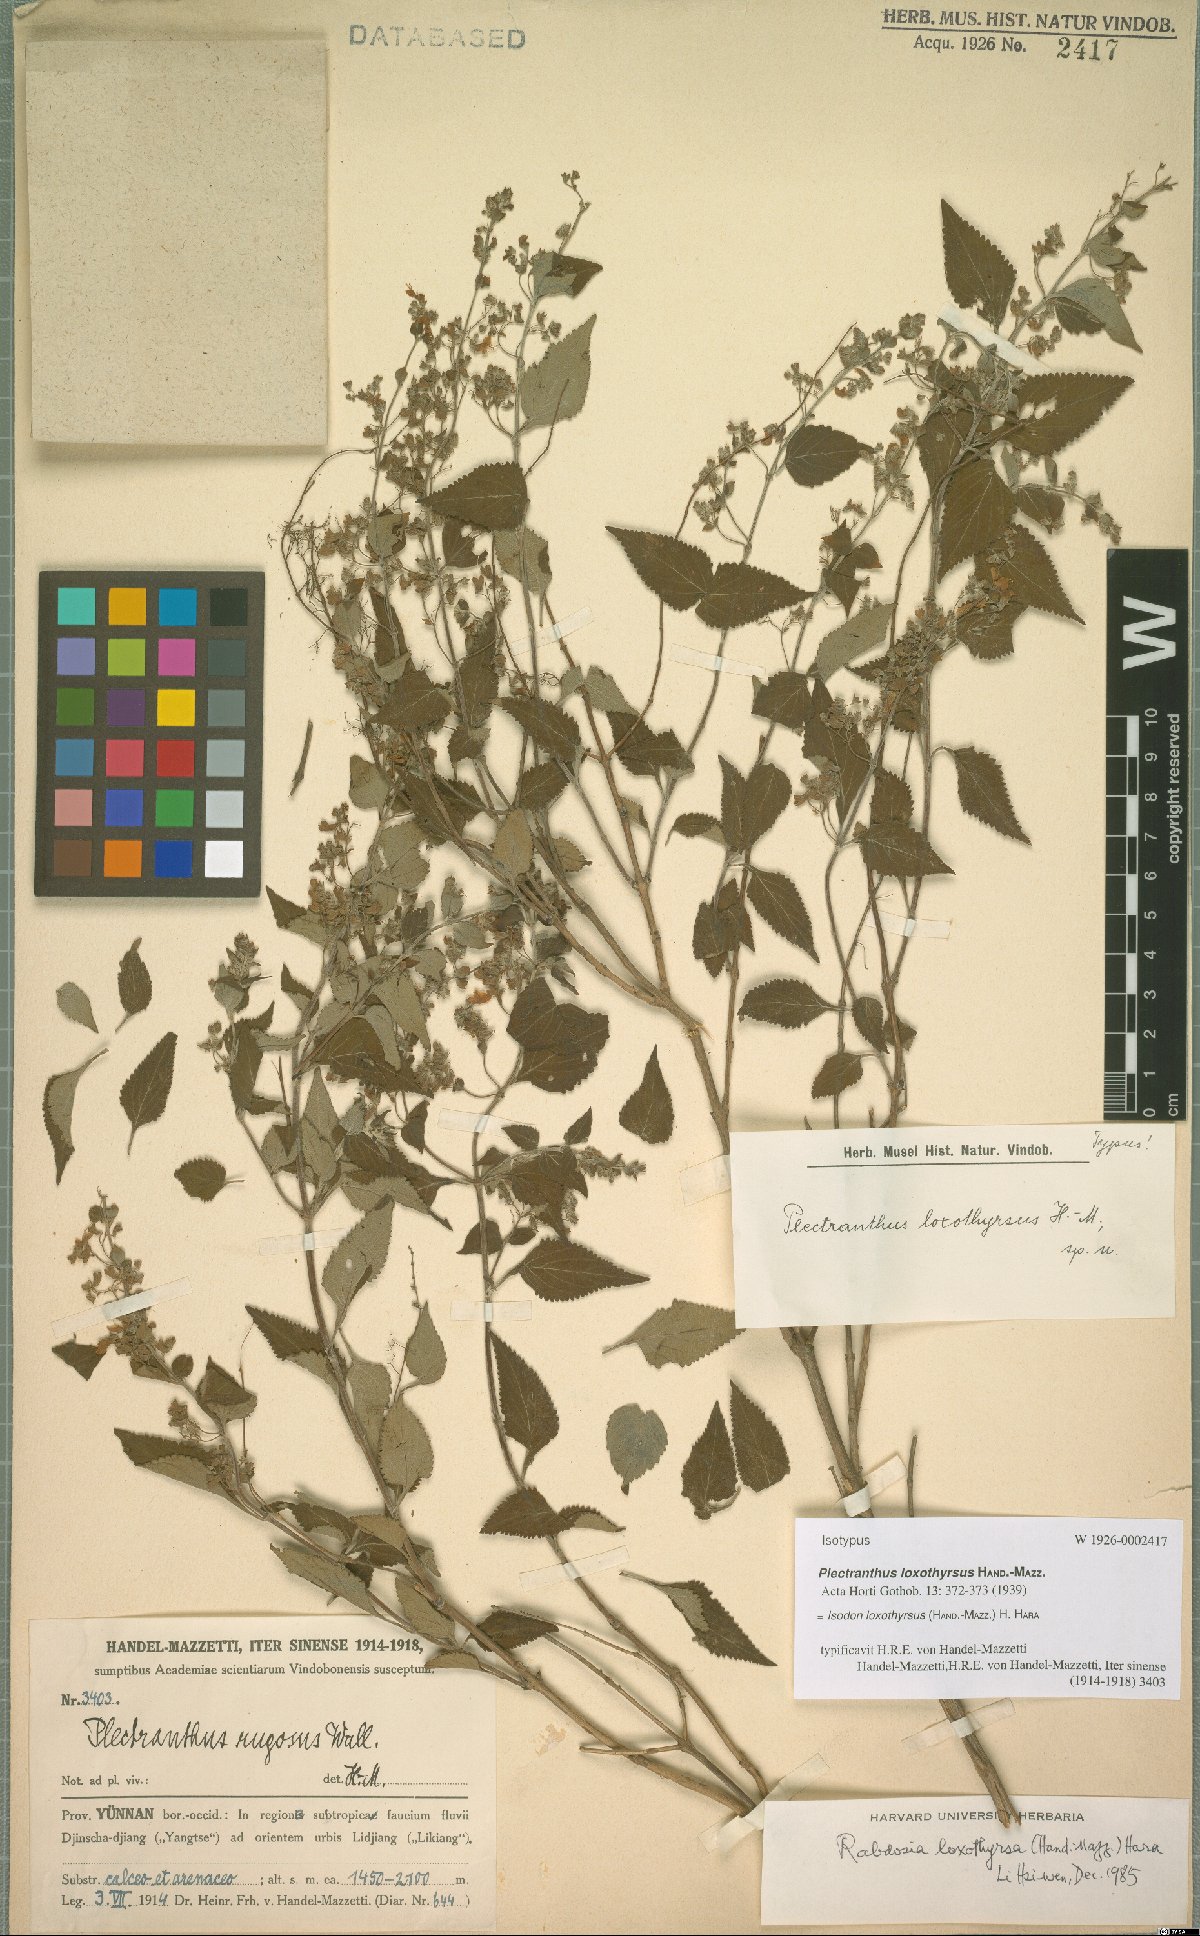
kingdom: Plantae
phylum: Tracheophyta
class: Magnoliopsida
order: Lamiales
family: Lamiaceae
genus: Isodon
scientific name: Isodon loxothyrsus
